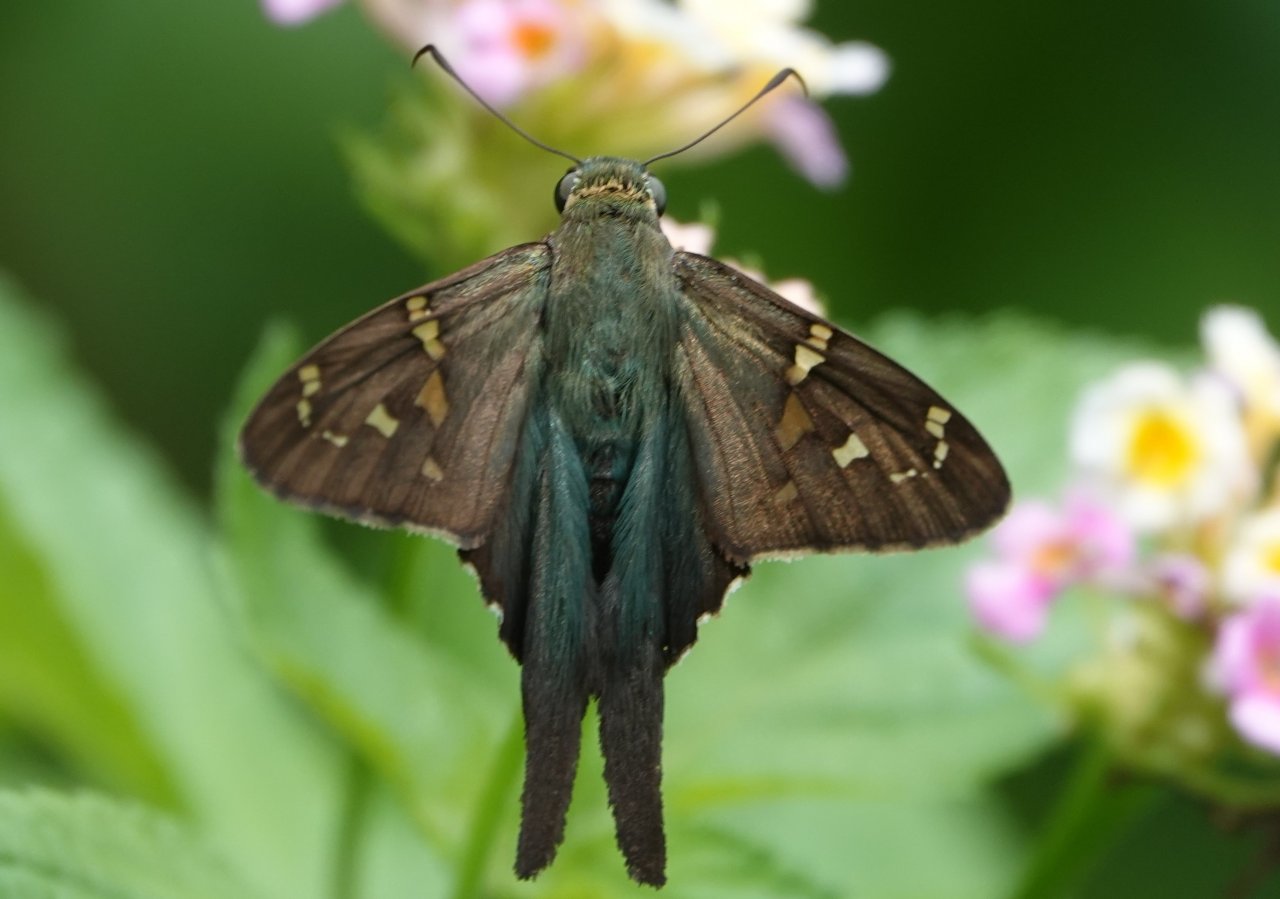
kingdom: Animalia
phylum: Arthropoda
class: Insecta
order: Lepidoptera
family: Hesperiidae
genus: Urbanus
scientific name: Urbanus proteus
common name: Long-tailed Skipper
